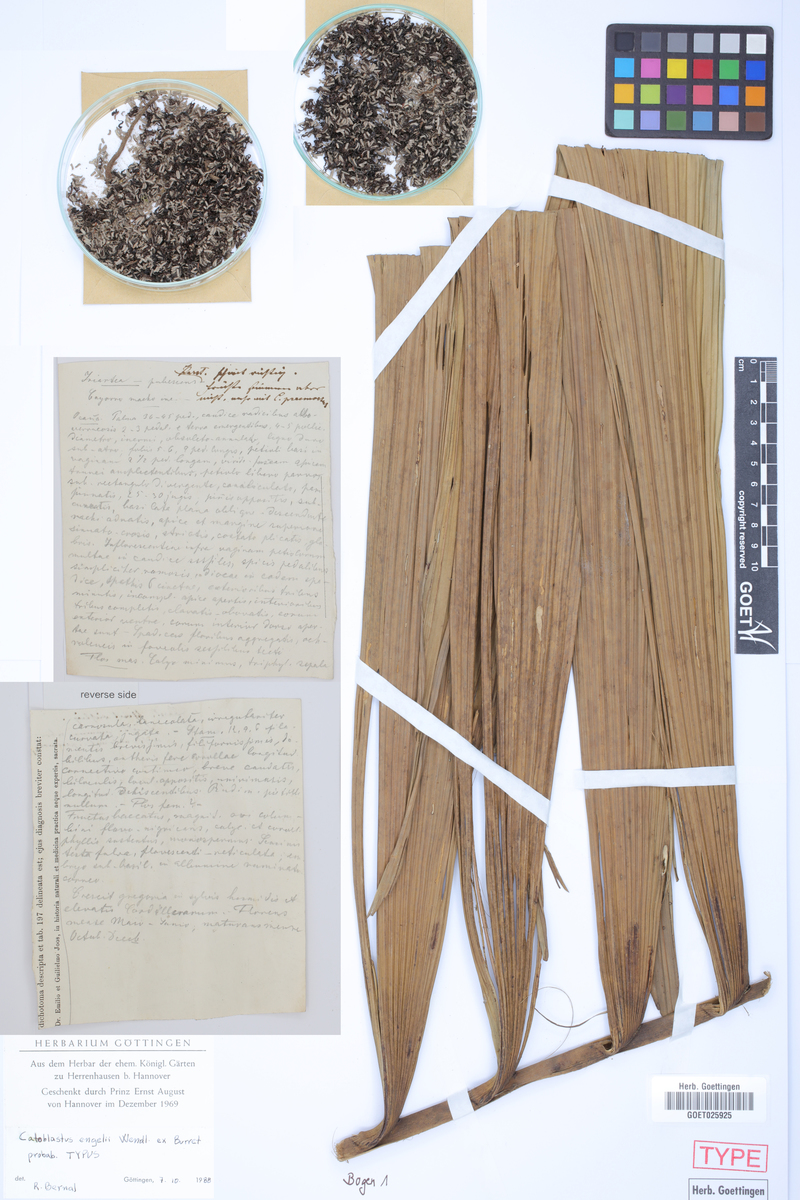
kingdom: Plantae
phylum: Tracheophyta
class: Liliopsida
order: Arecales
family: Arecaceae
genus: Wettinia
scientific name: Wettinia praemorsa
